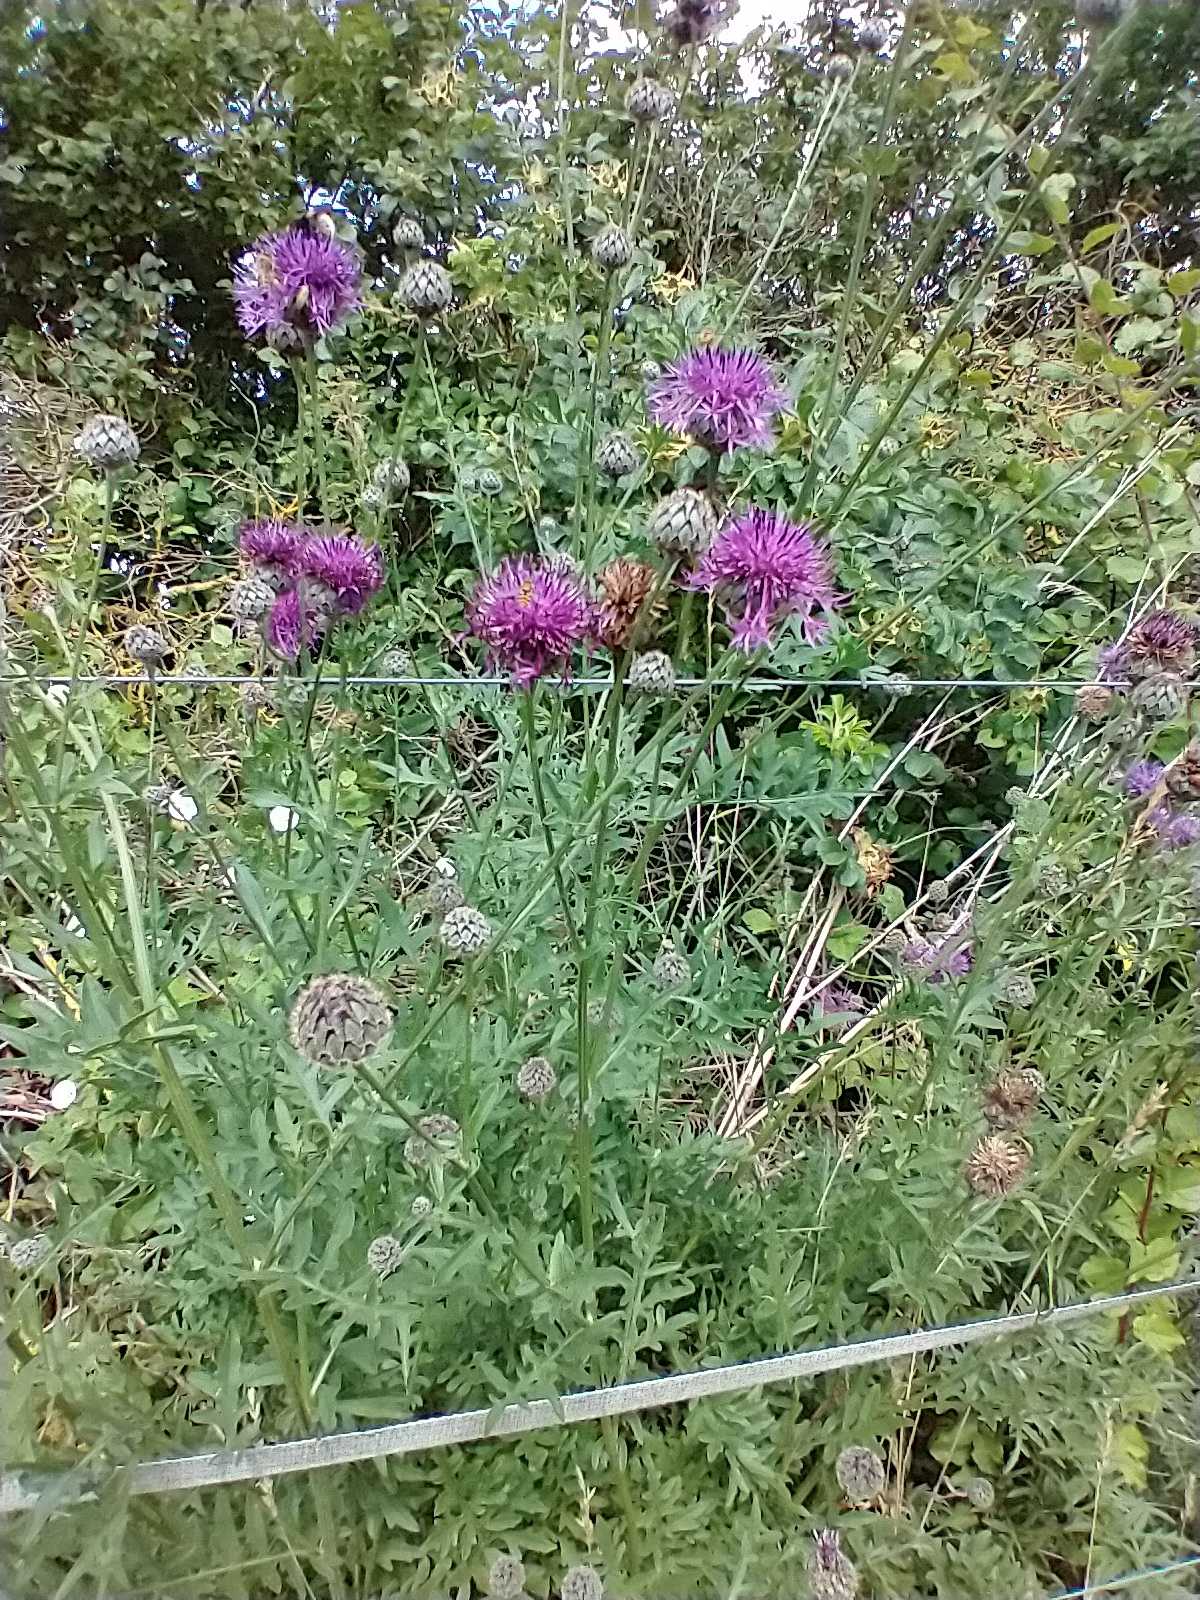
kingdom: Plantae
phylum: Tracheophyta
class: Magnoliopsida
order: Asterales
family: Asteraceae
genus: Centaurea
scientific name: Centaurea scabiosa
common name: Stor knopurt
